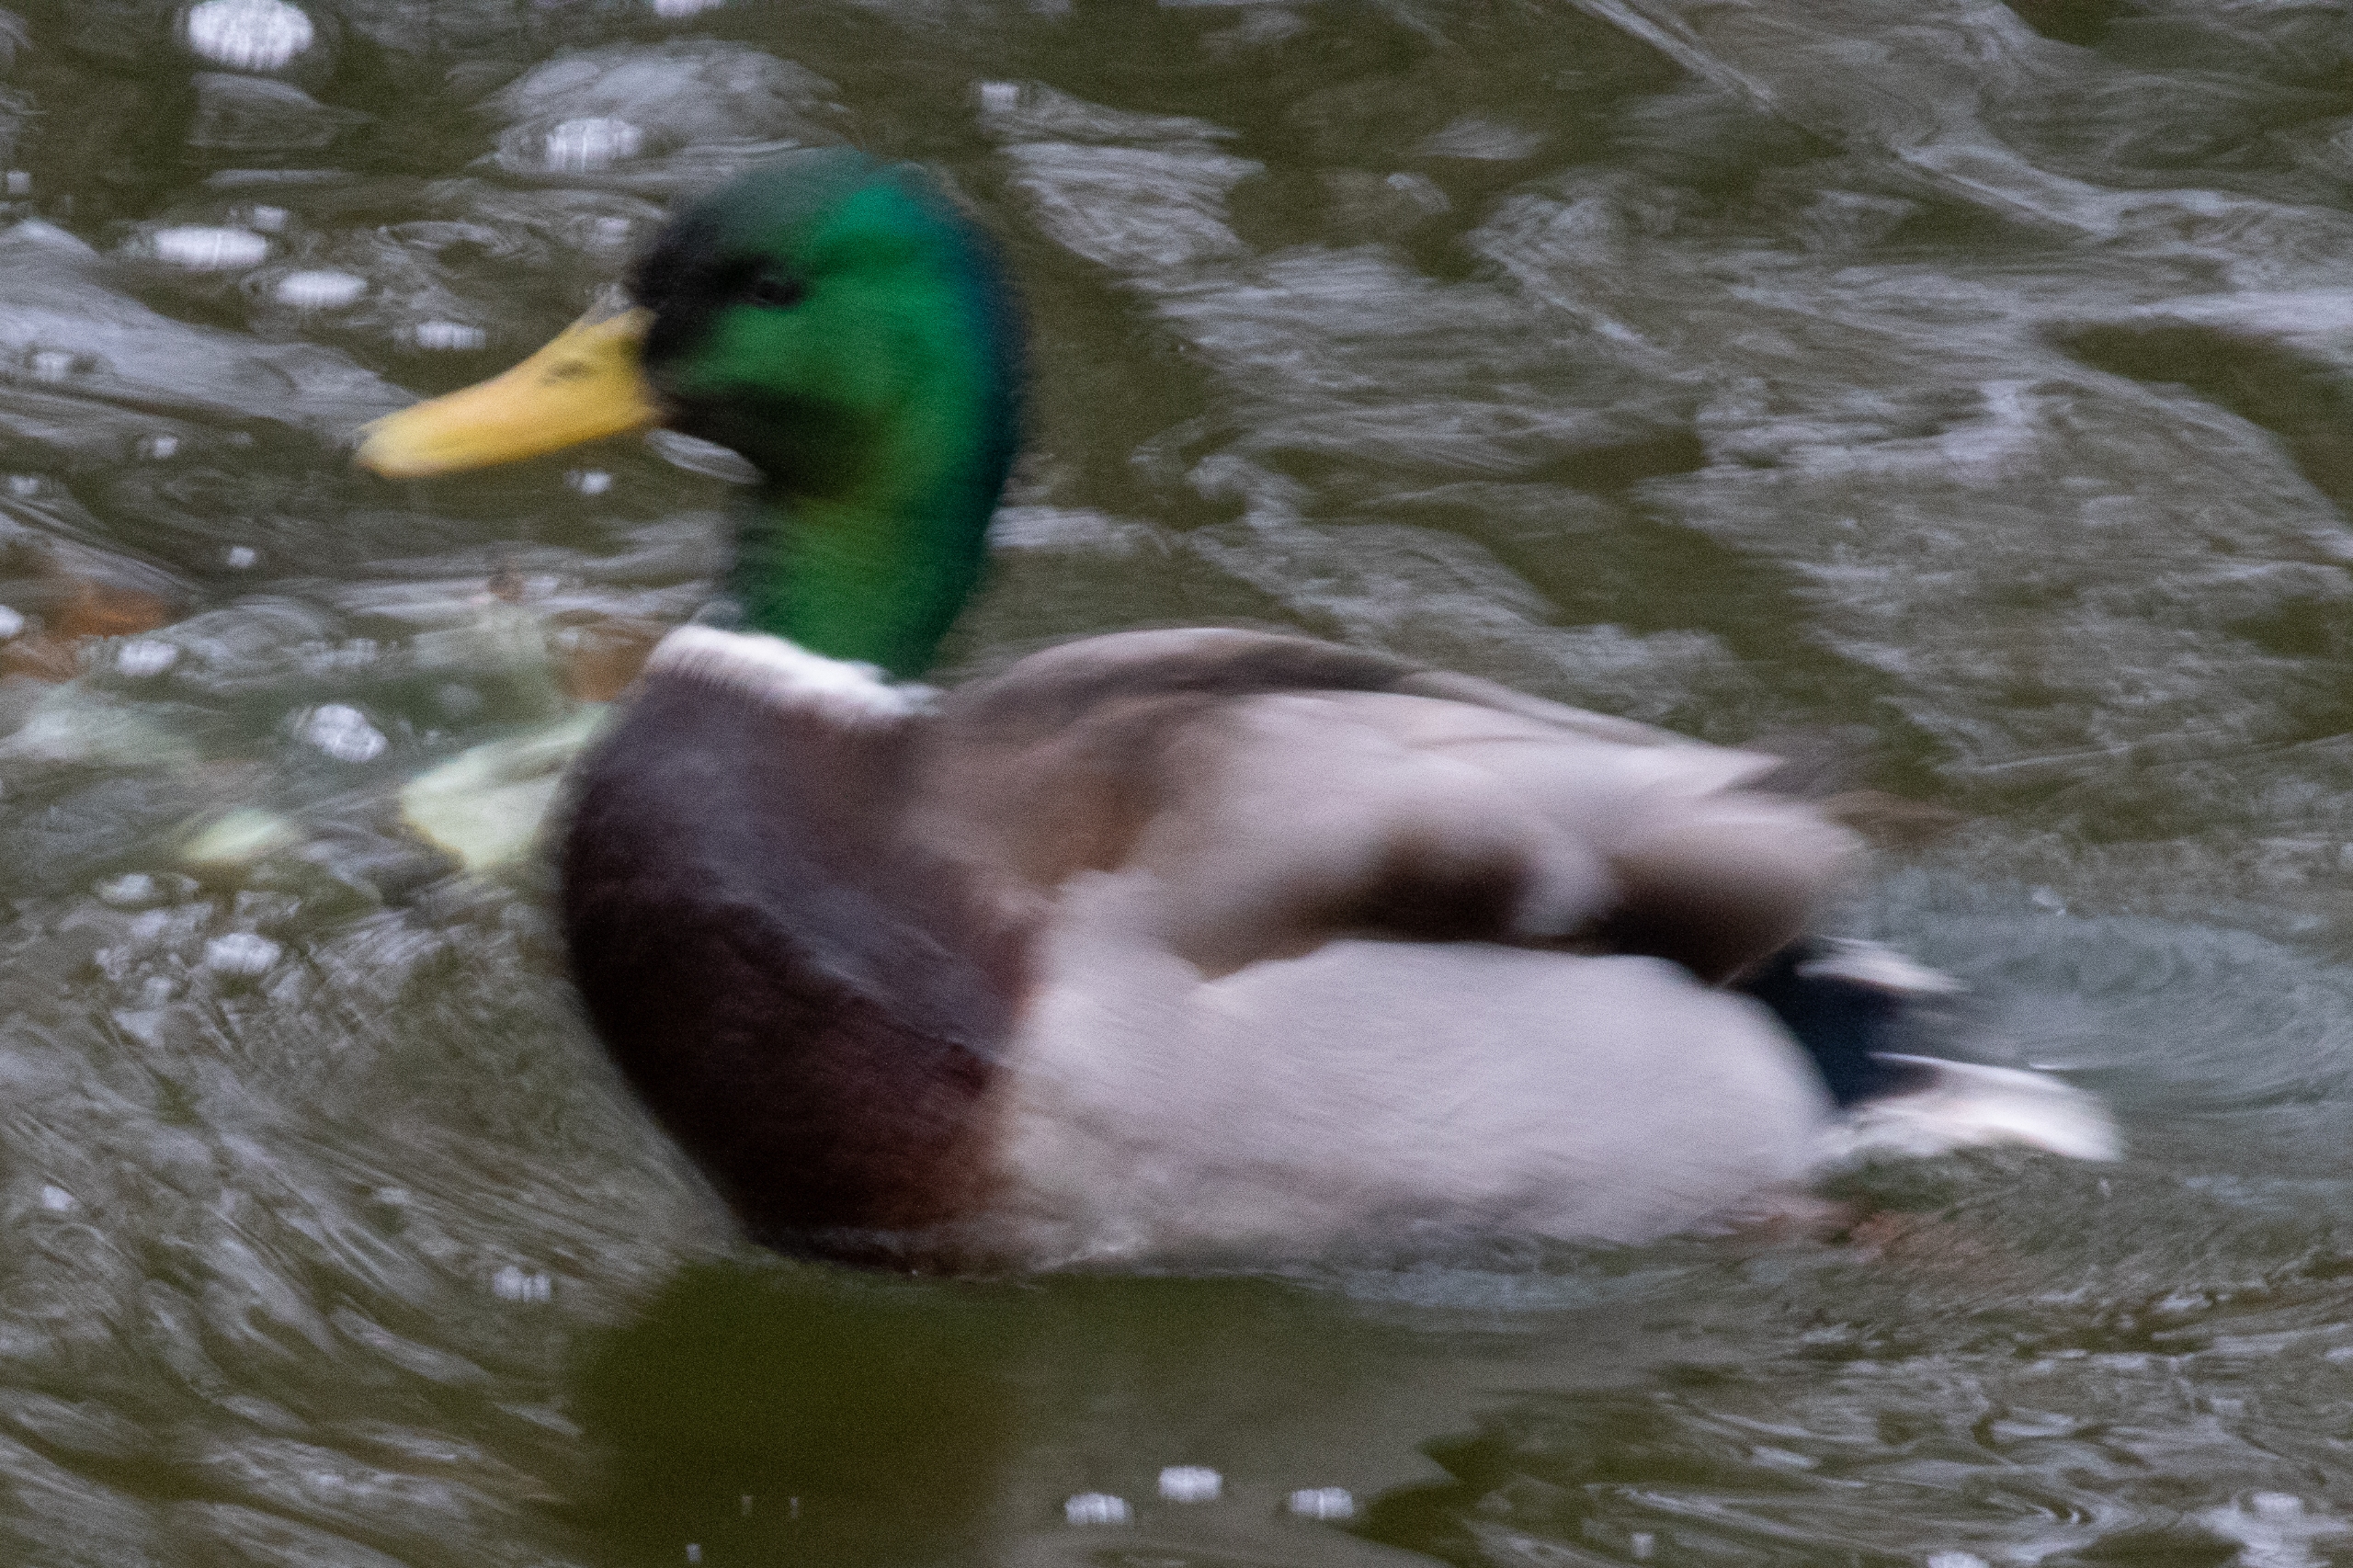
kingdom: Animalia
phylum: Chordata
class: Aves
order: Anseriformes
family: Anatidae
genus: Anas
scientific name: Anas platyrhynchos
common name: Gråand
